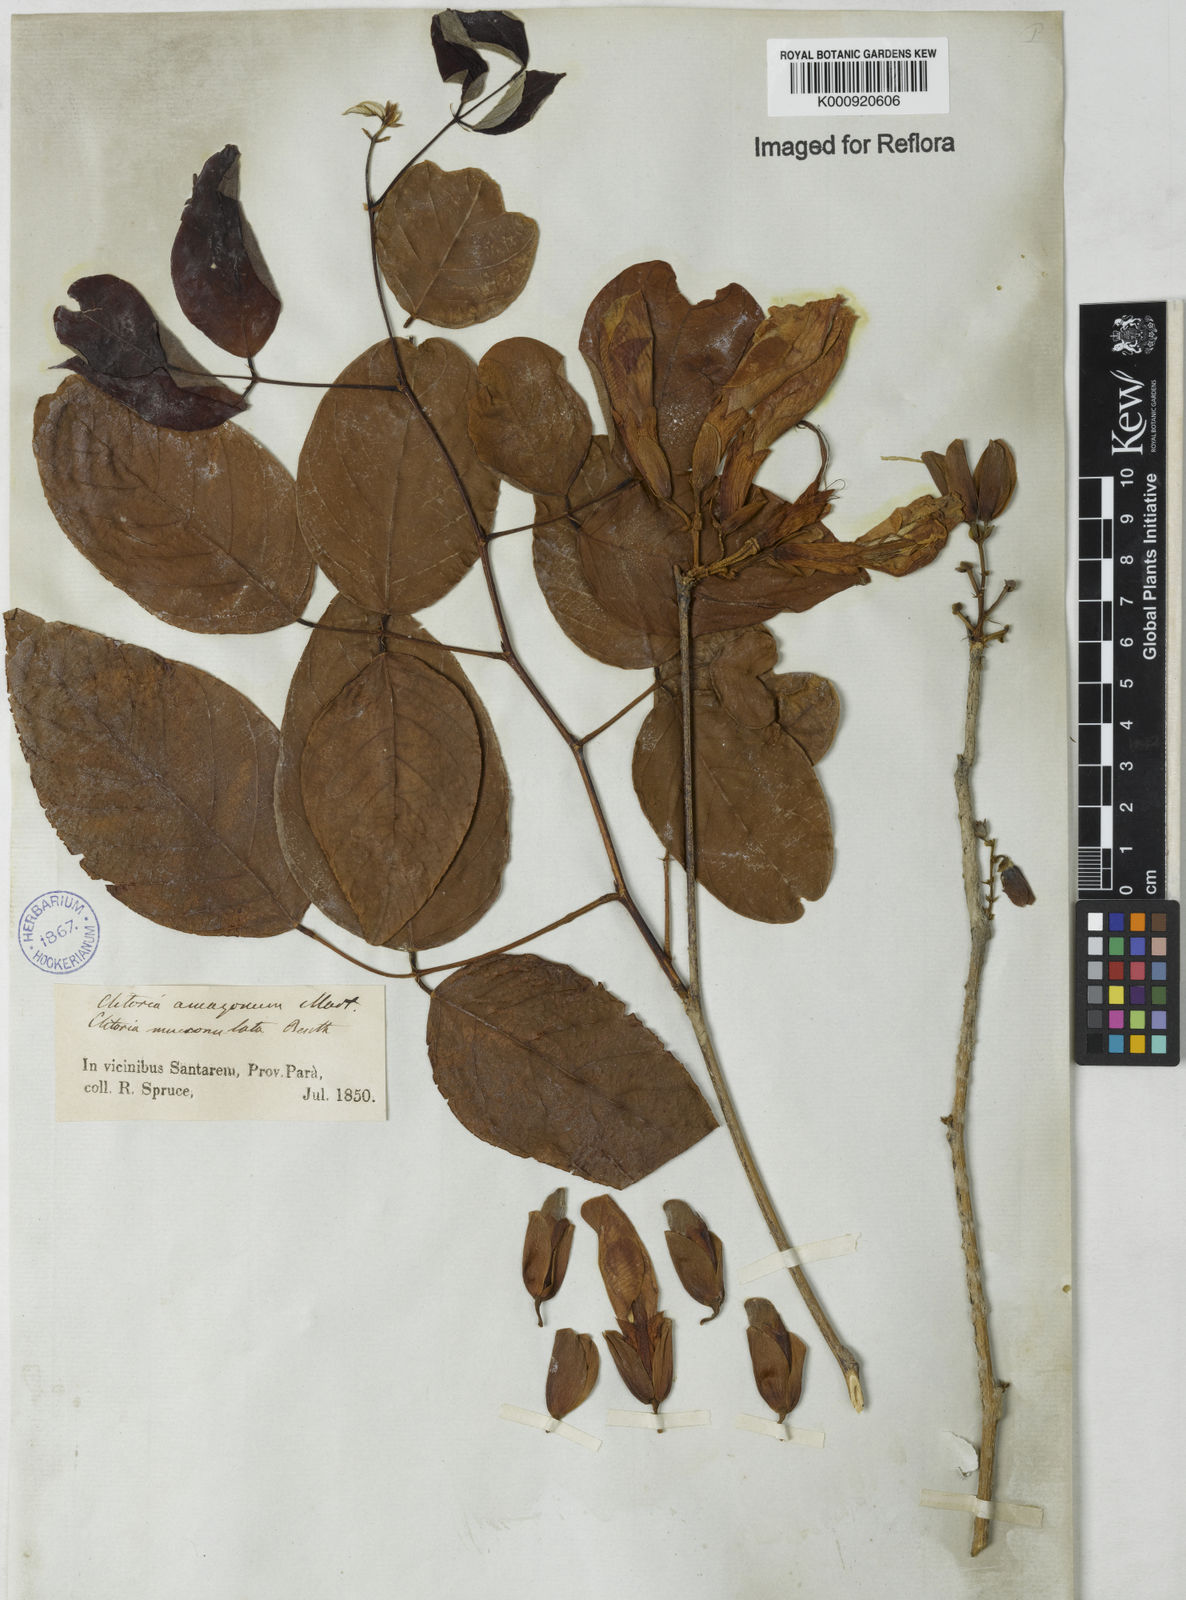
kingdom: Plantae
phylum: Tracheophyta
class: Magnoliopsida
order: Fabales
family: Fabaceae
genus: Clitoria
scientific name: Clitoria amazonum
